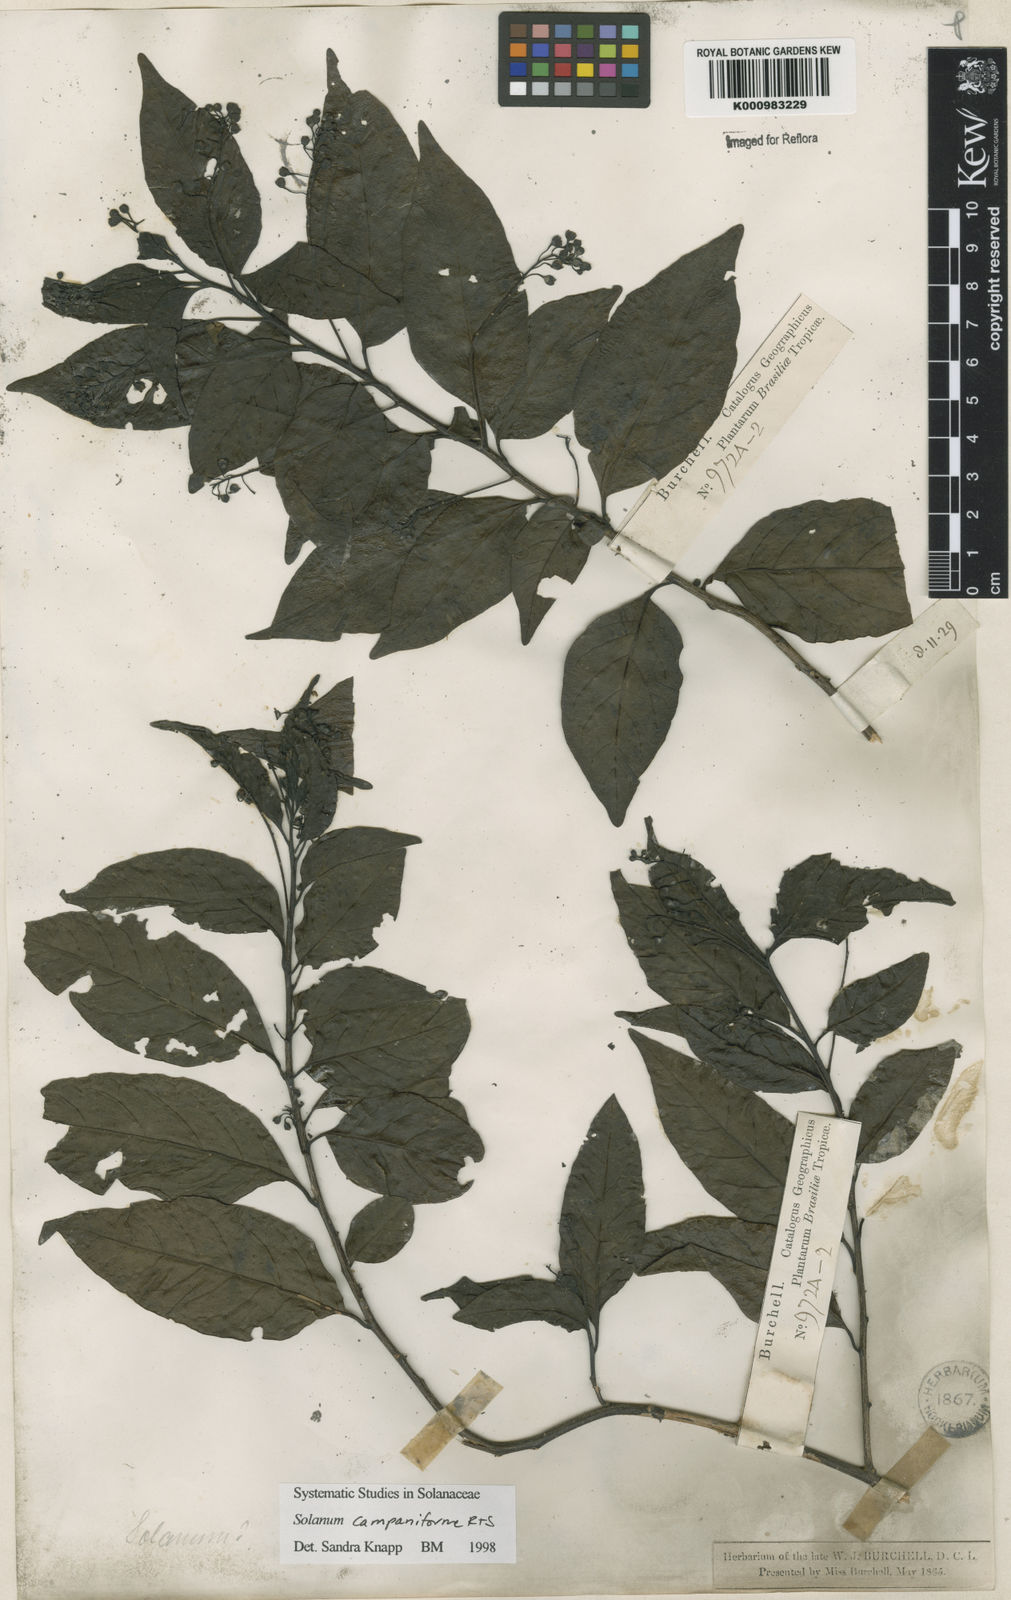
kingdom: Plantae
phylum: Tracheophyta
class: Magnoliopsida
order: Solanales
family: Solanaceae
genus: Solanum
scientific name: Solanum campaniforme
